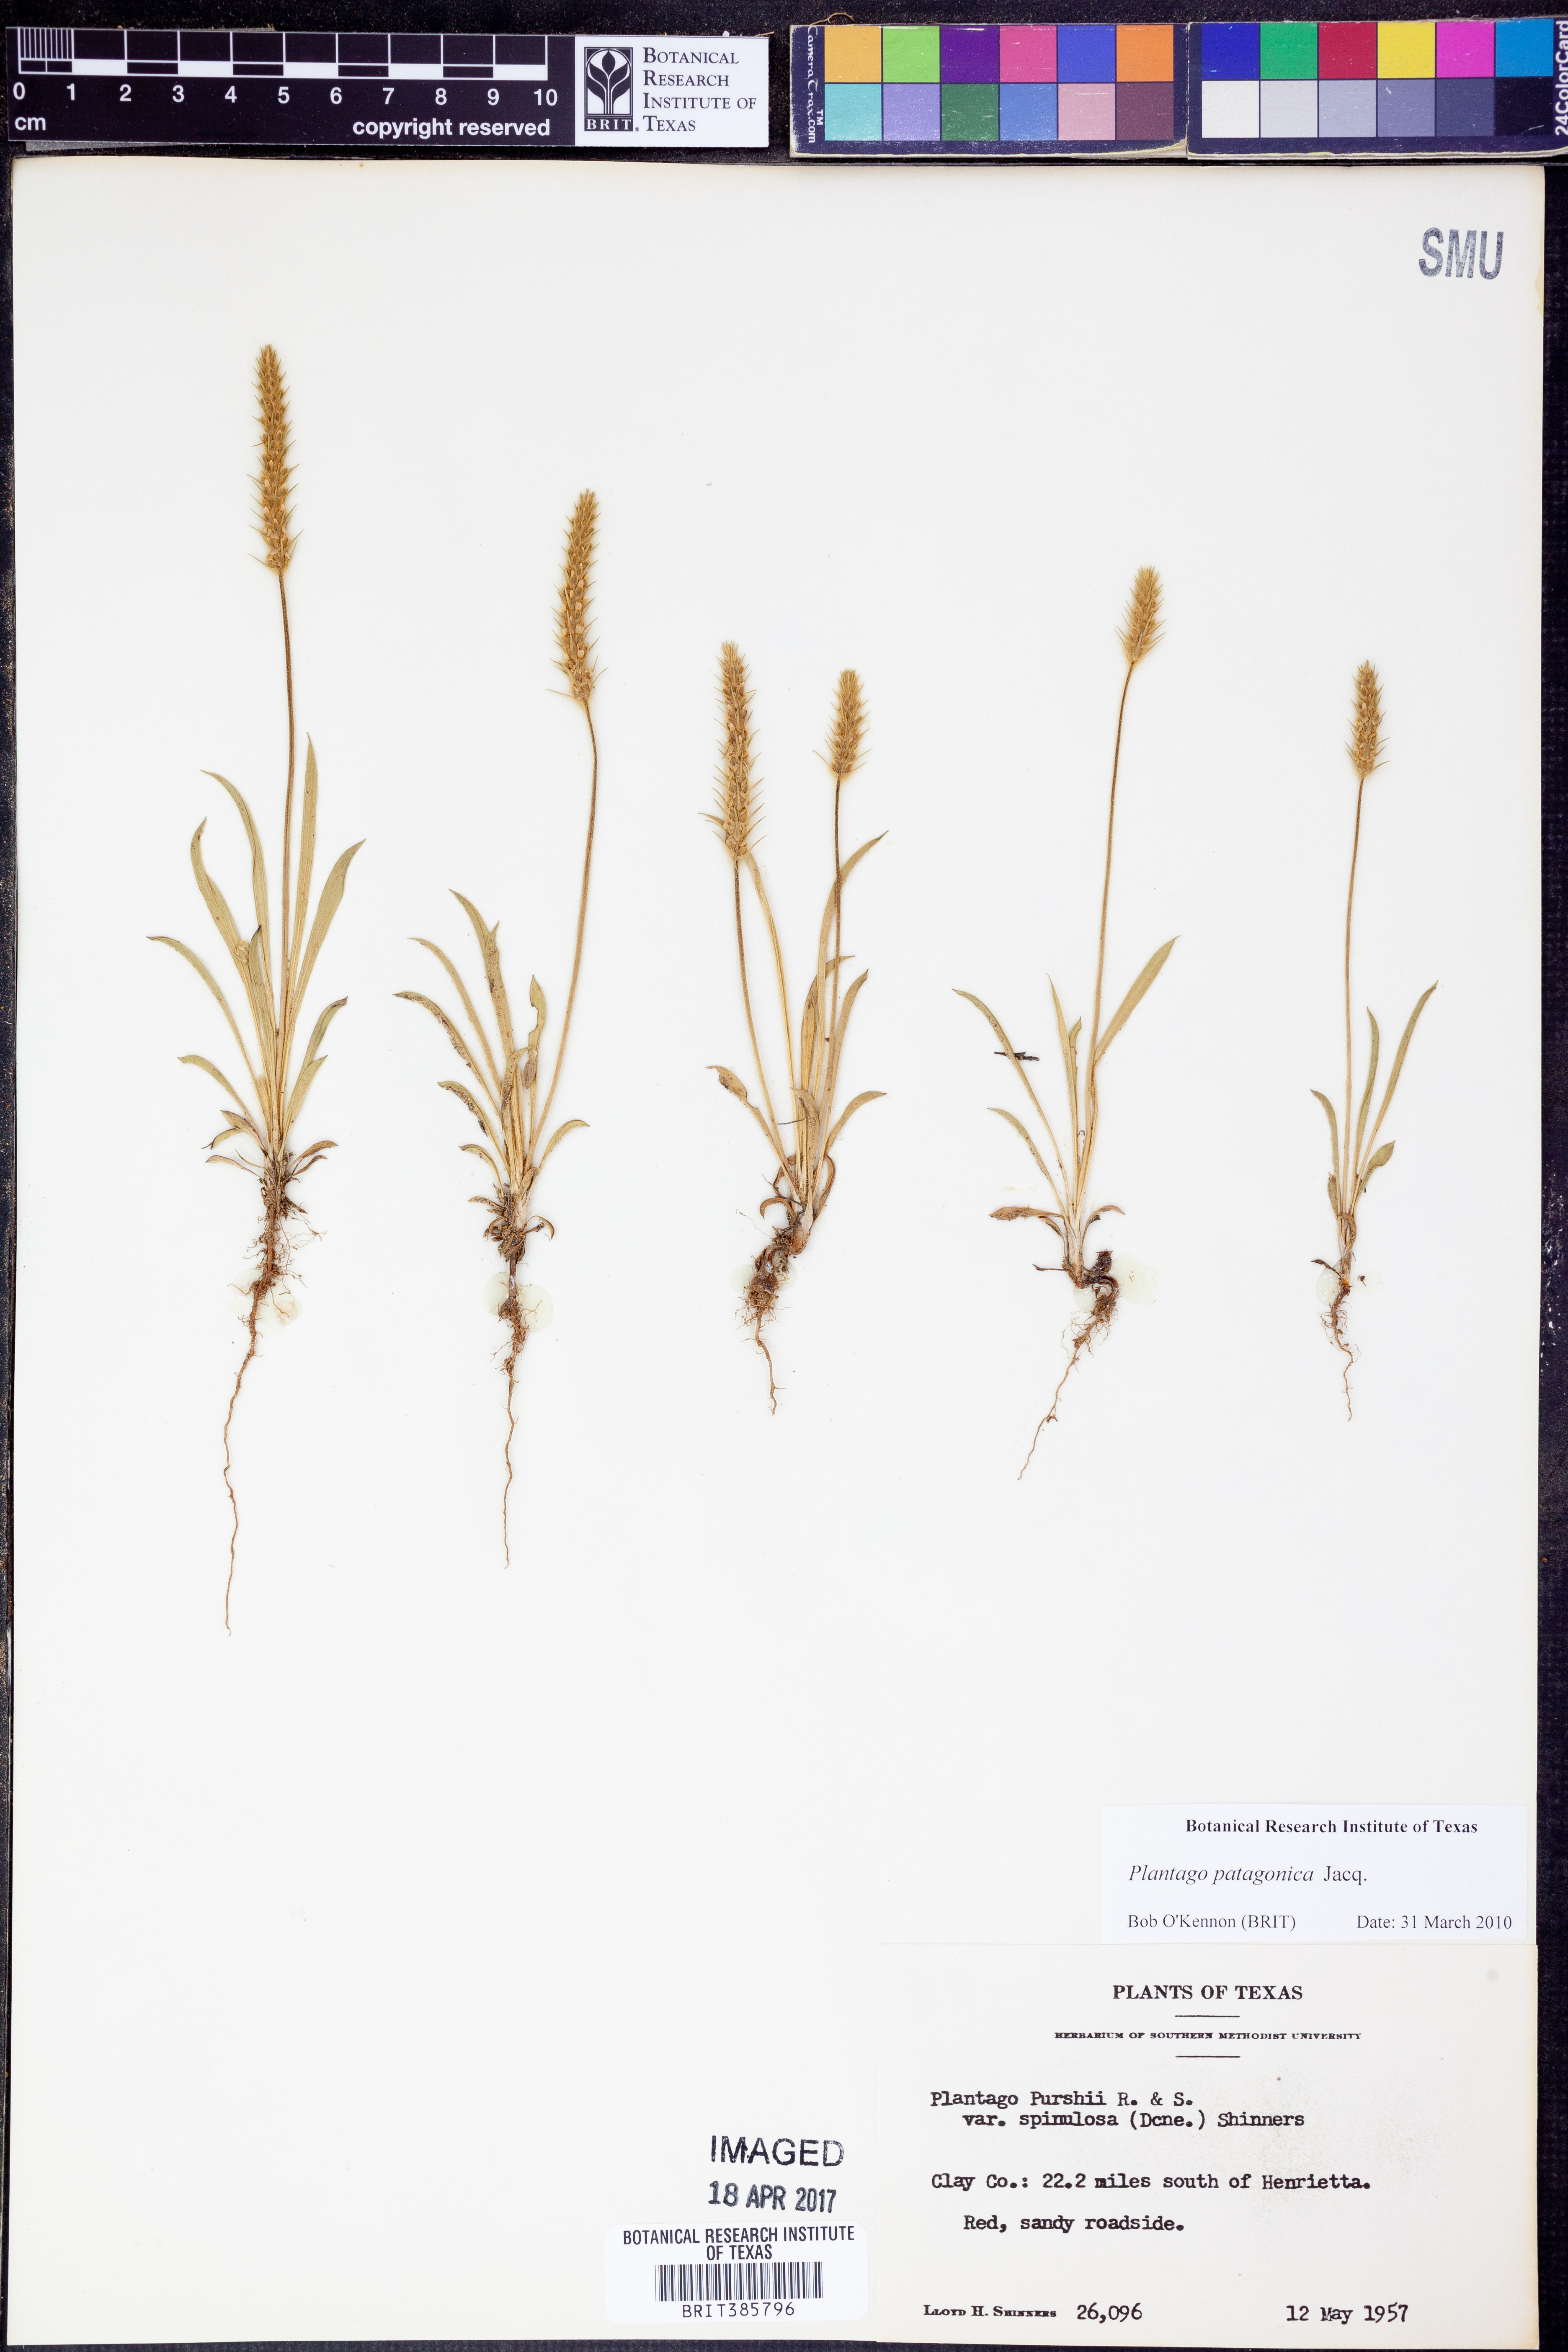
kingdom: Plantae
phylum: Tracheophyta
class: Magnoliopsida
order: Lamiales
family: Plantaginaceae
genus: Plantago
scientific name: Plantago patagonica
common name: Patagonia indian-wheat
